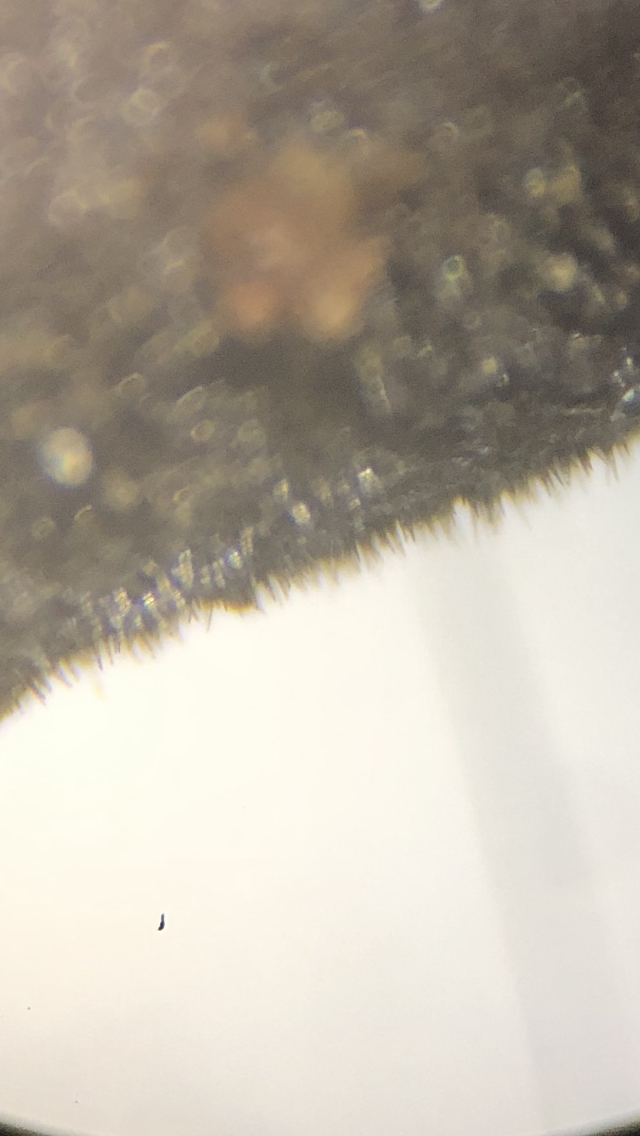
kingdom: Fungi
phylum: Basidiomycota
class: Agaricomycetes
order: Agaricales
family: Macrocystidiaceae
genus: Macrocystidia
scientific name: Macrocystidia cucumis
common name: agurkehat
